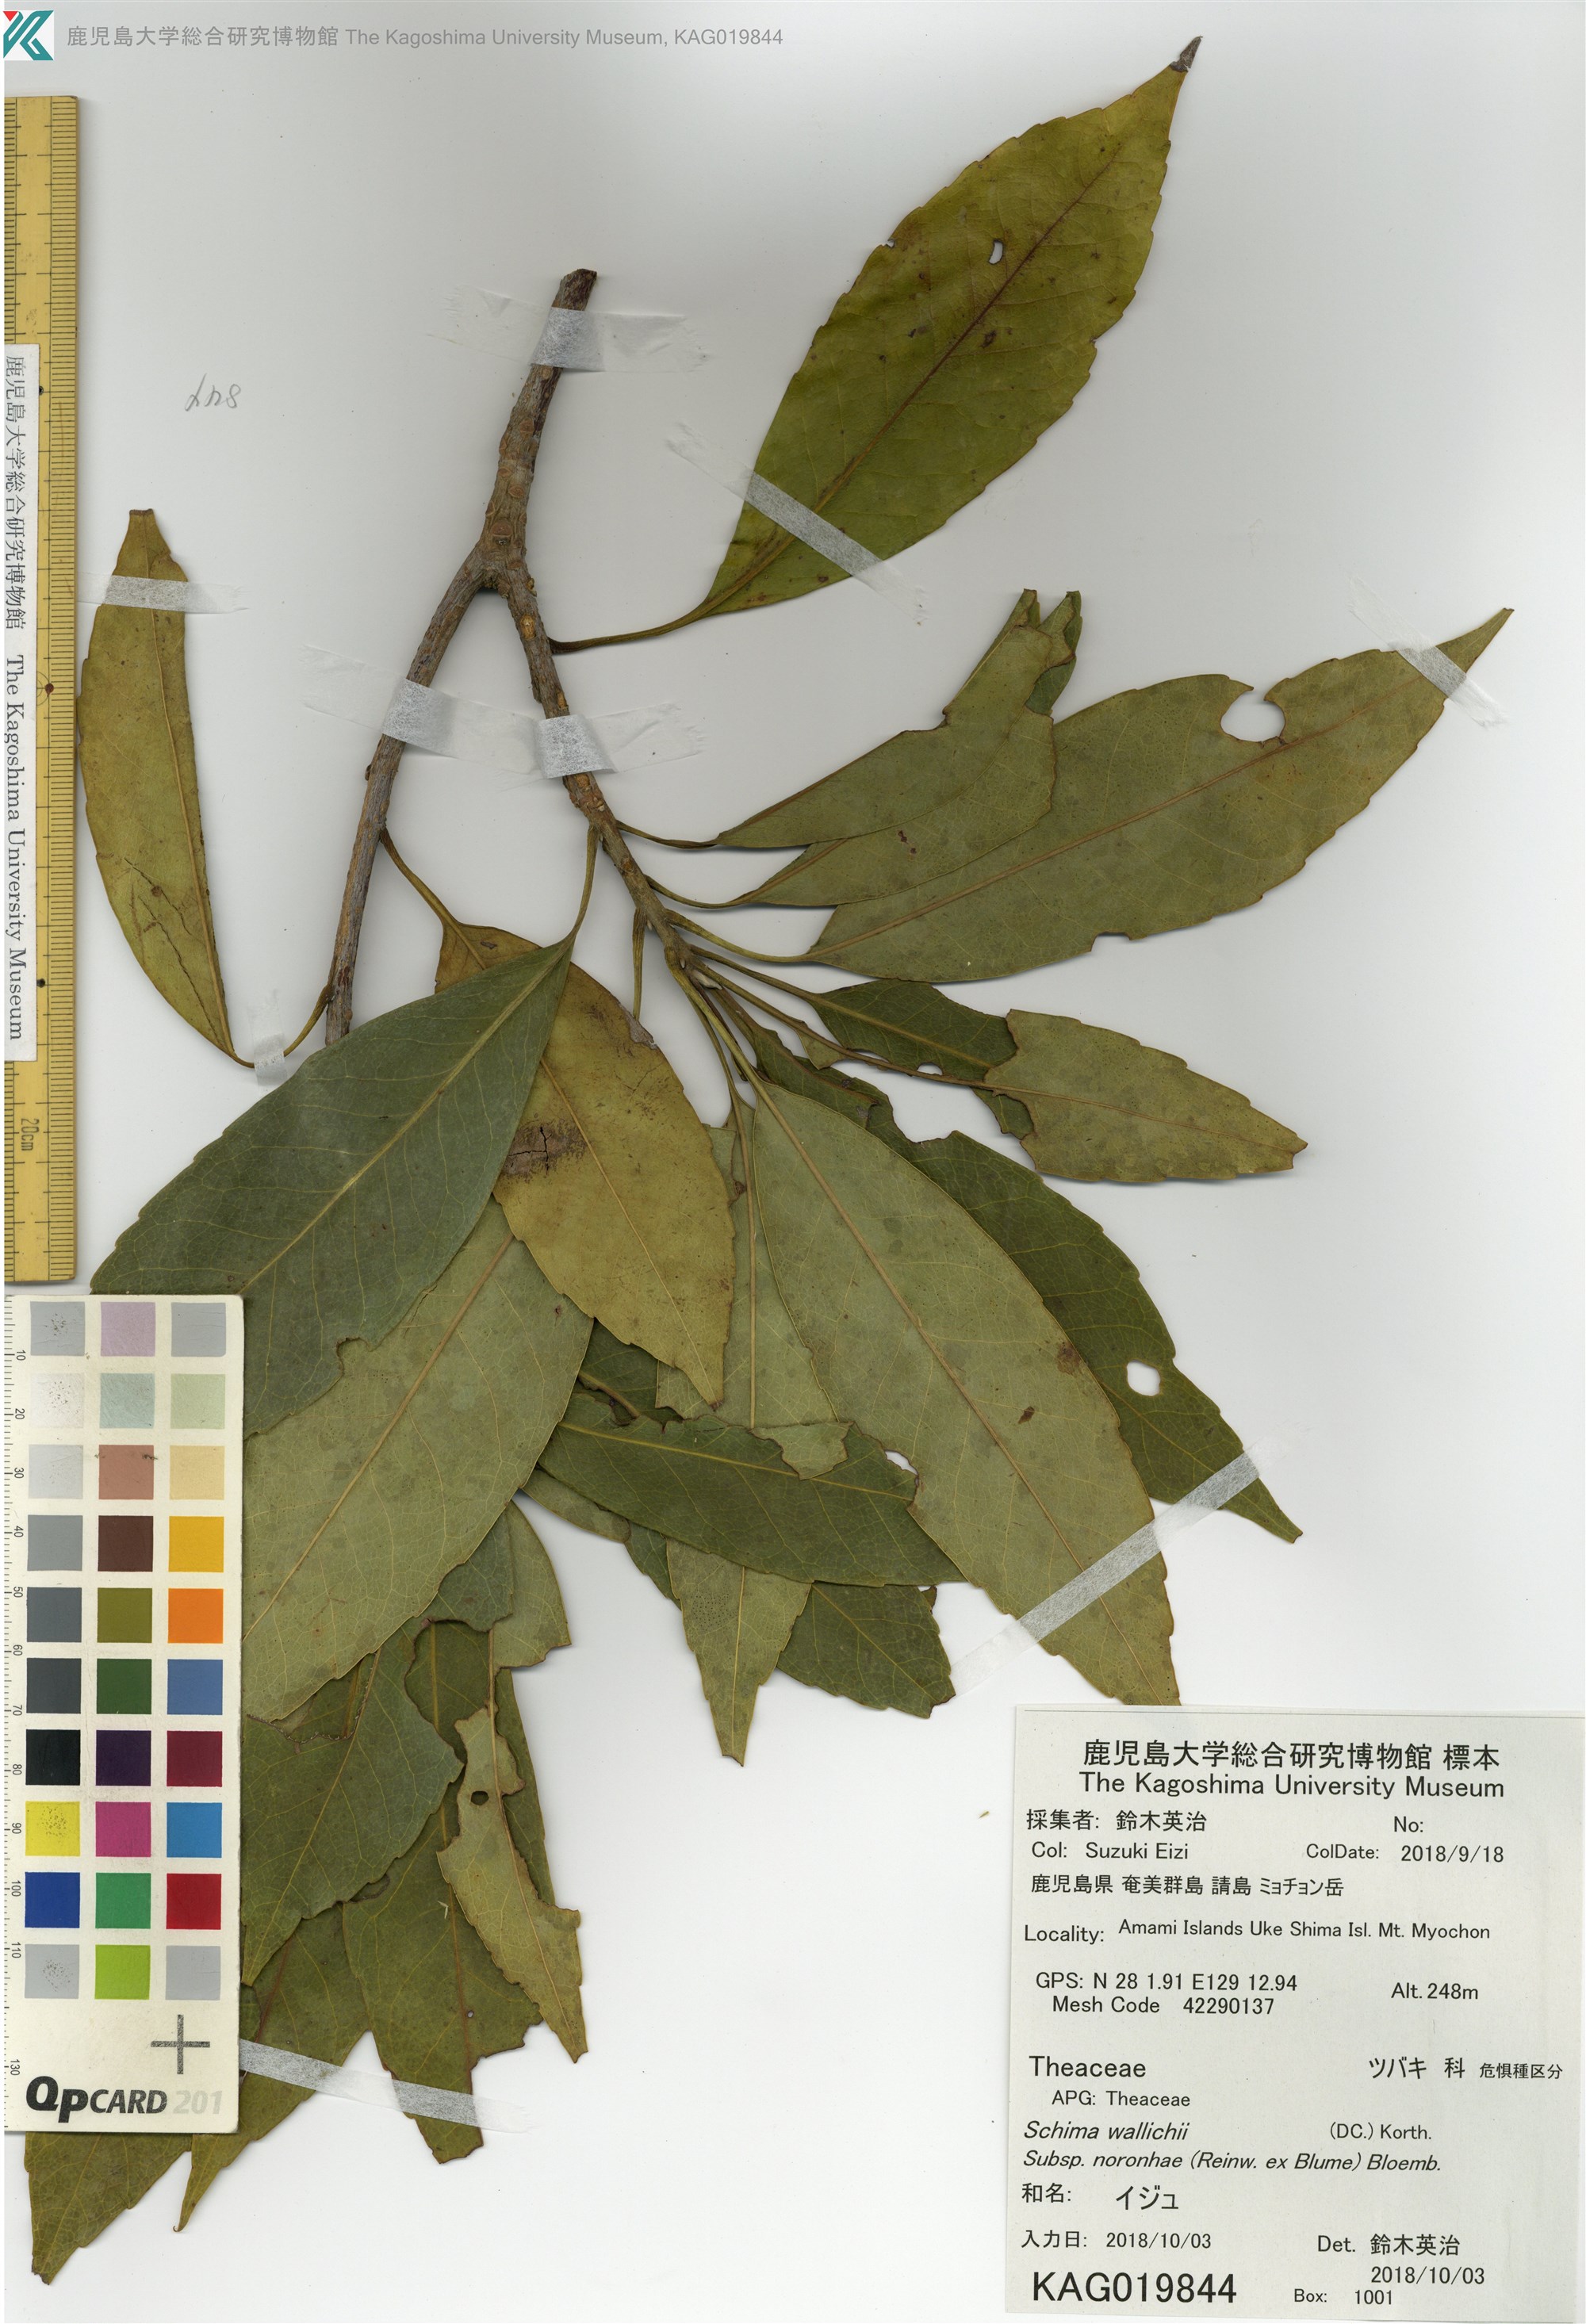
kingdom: Plantae
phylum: Tracheophyta
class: Magnoliopsida
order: Ericales
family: Theaceae
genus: Schima
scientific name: Schima noronhae
